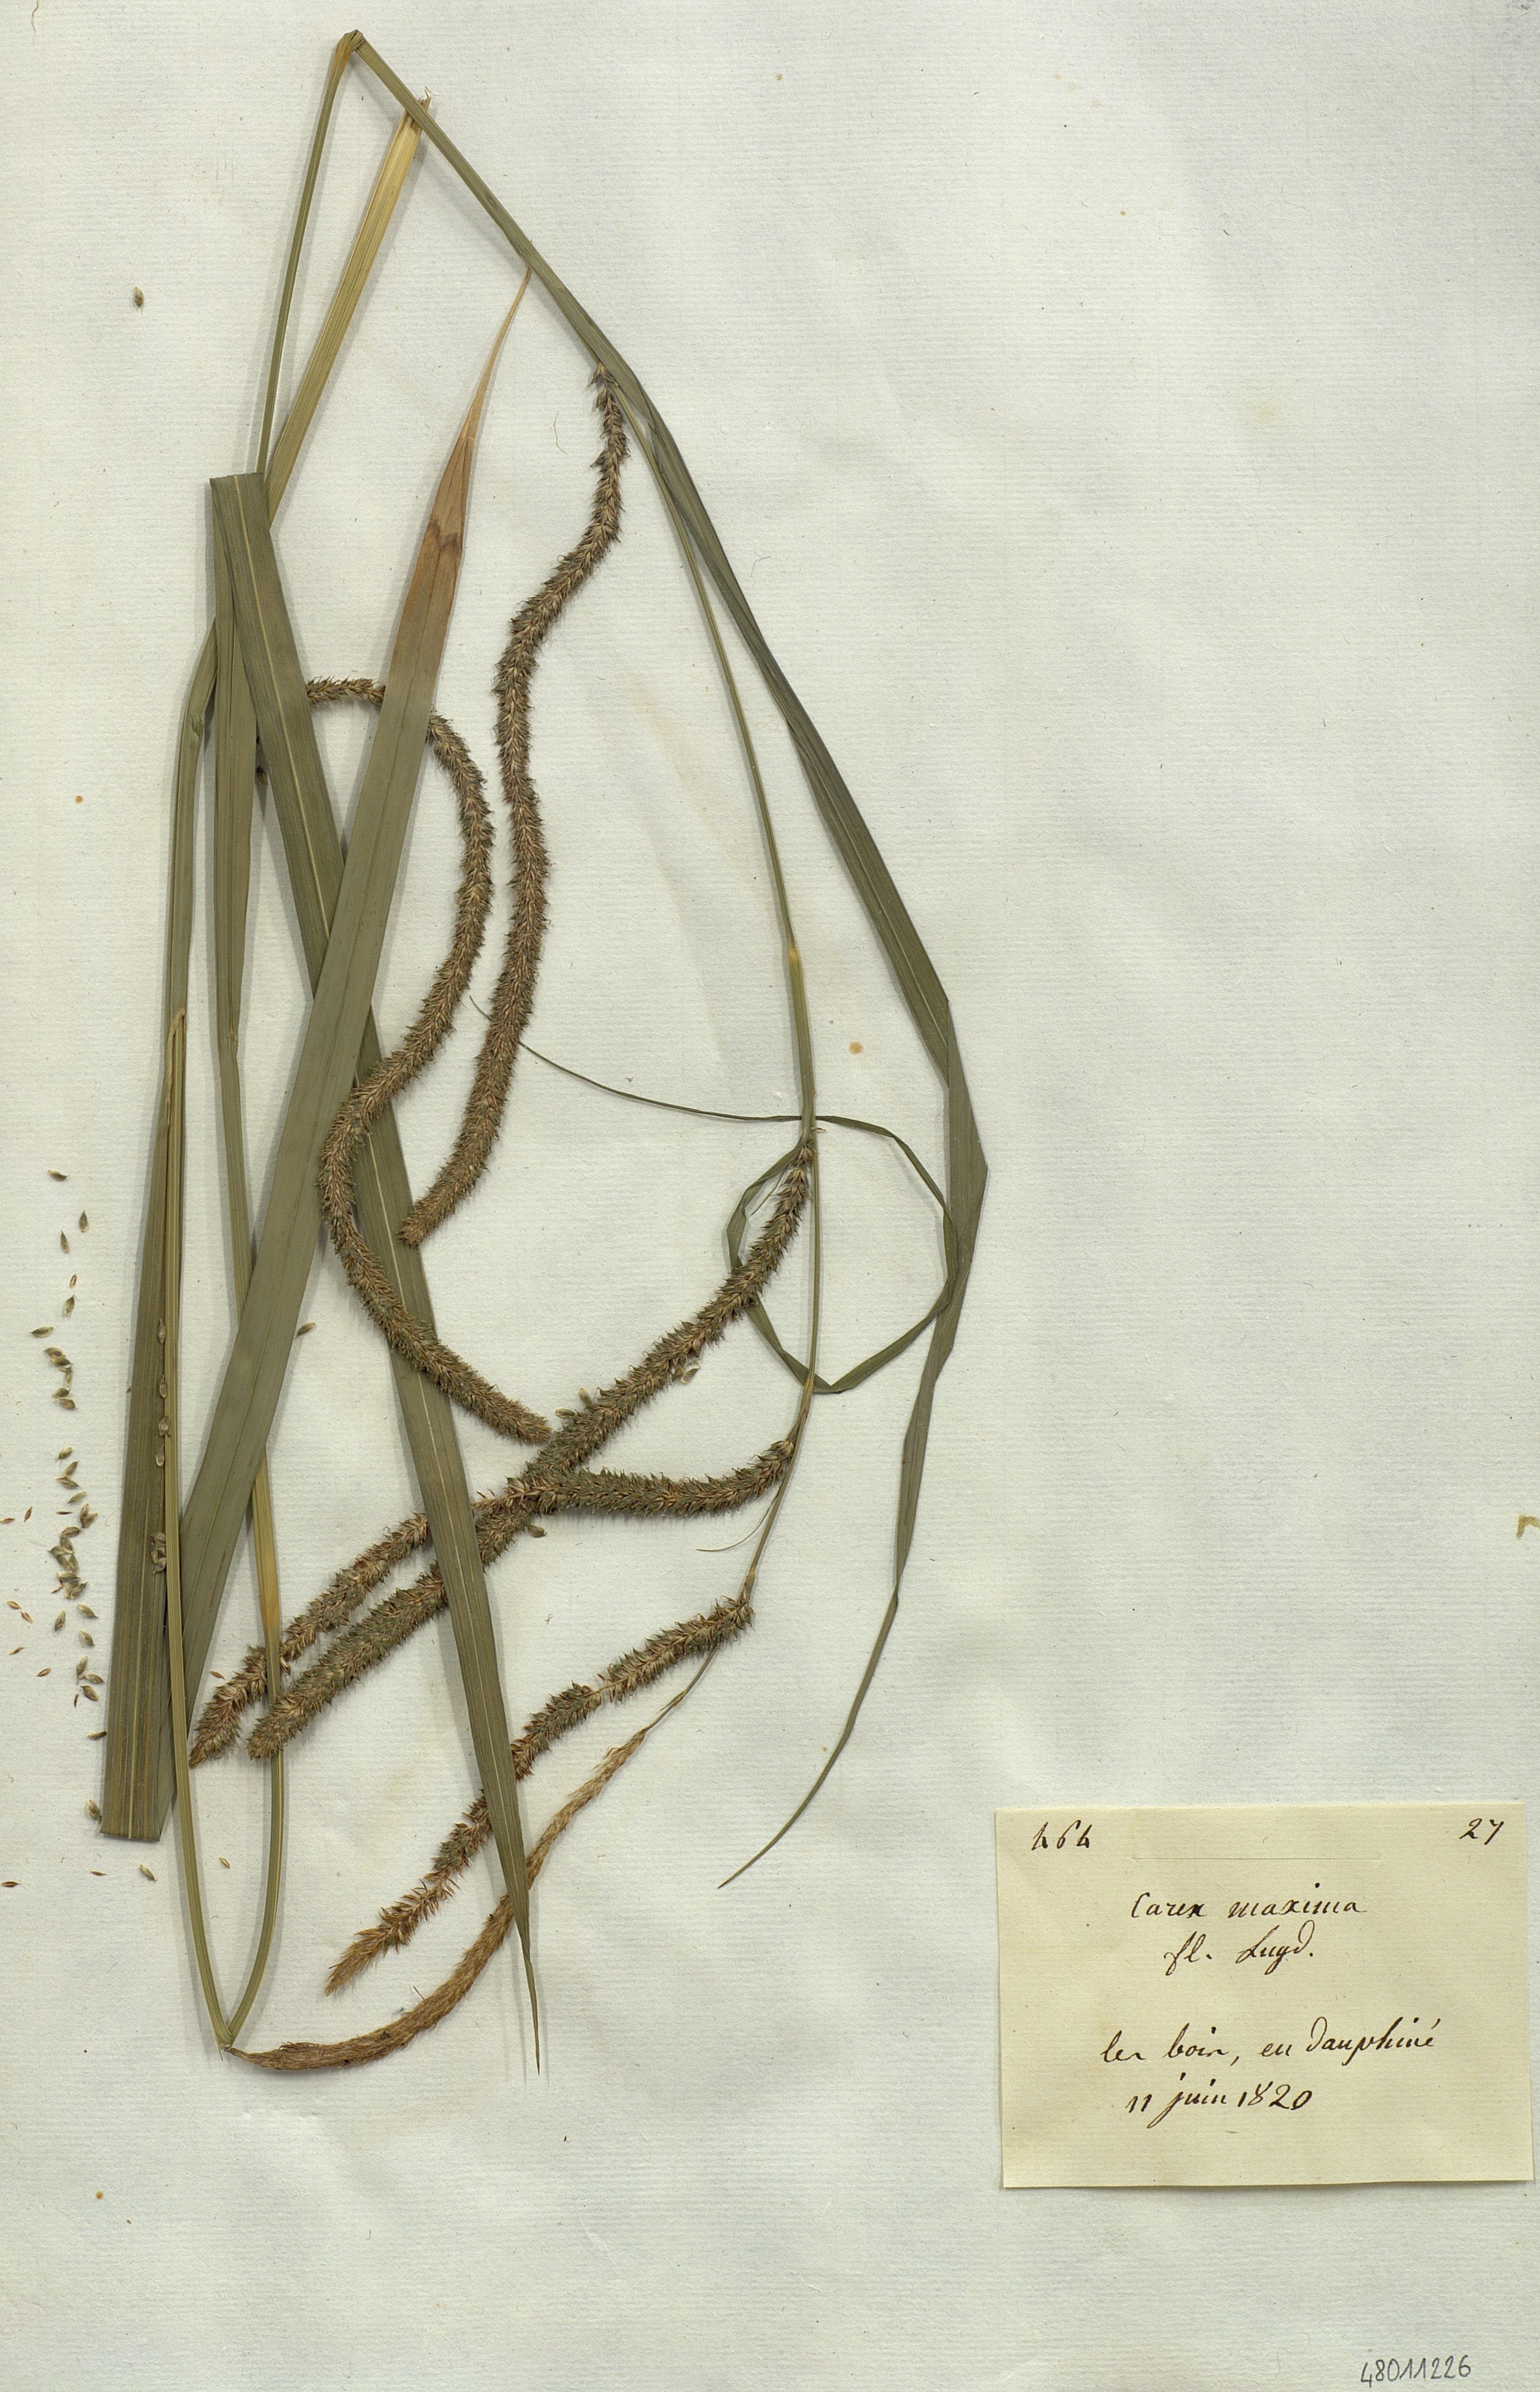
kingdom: Plantae
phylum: Tracheophyta
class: Liliopsida
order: Poales
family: Cyperaceae
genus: Carex
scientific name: Carex pendula
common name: Pendulous sedge
